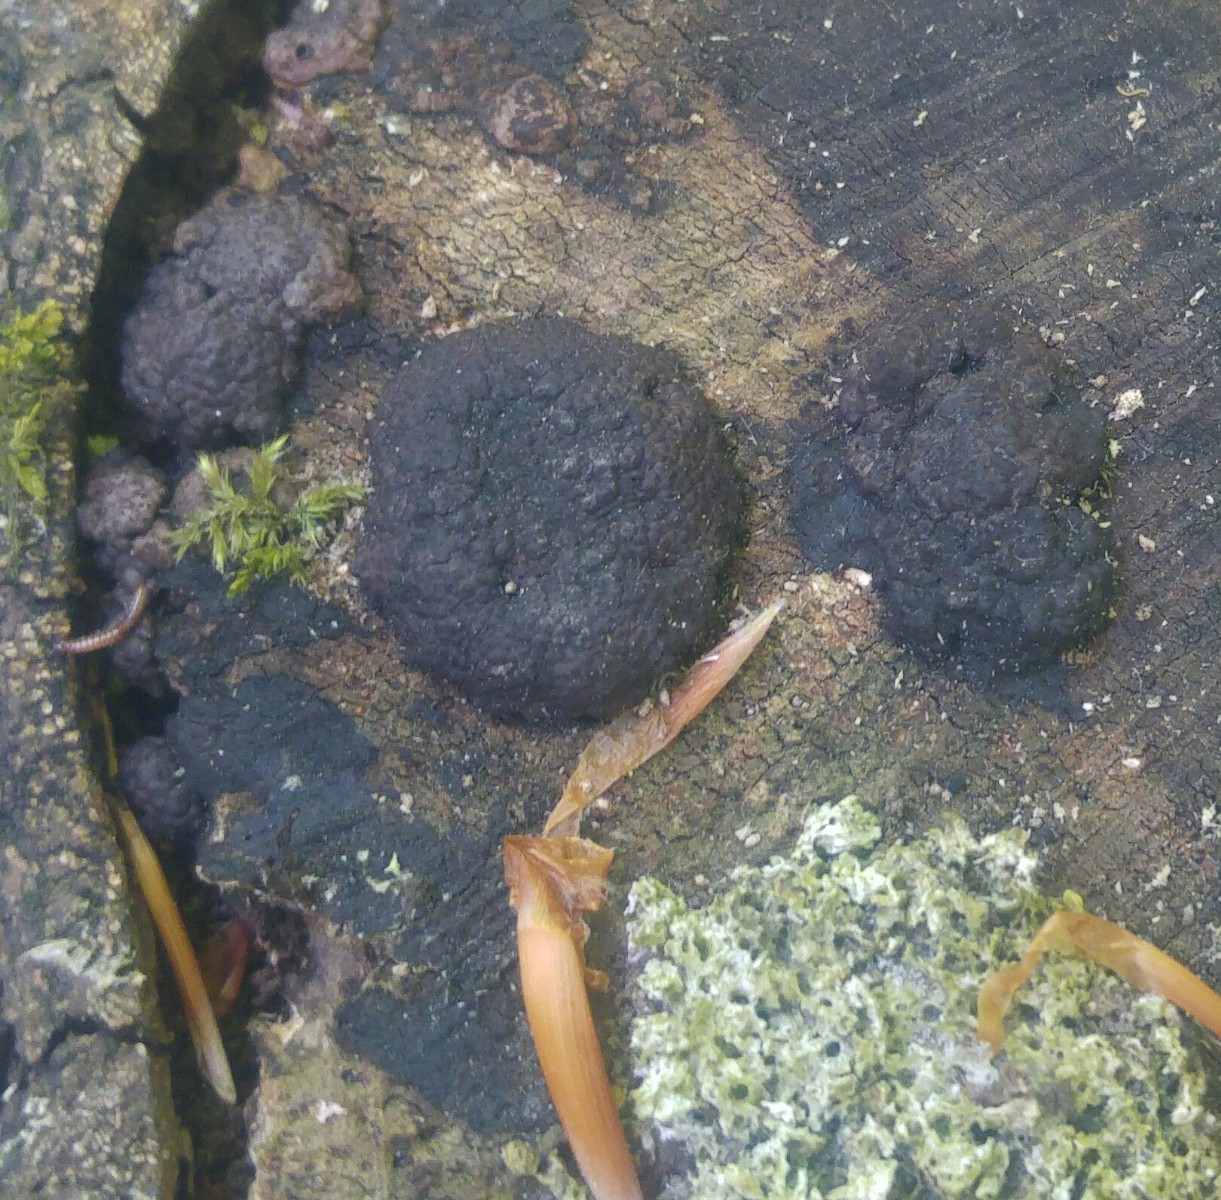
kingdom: Fungi
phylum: Ascomycota
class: Sordariomycetes
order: Xylariales
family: Hypoxylaceae
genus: Jackrogersella
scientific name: Jackrogersella
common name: kulbær
